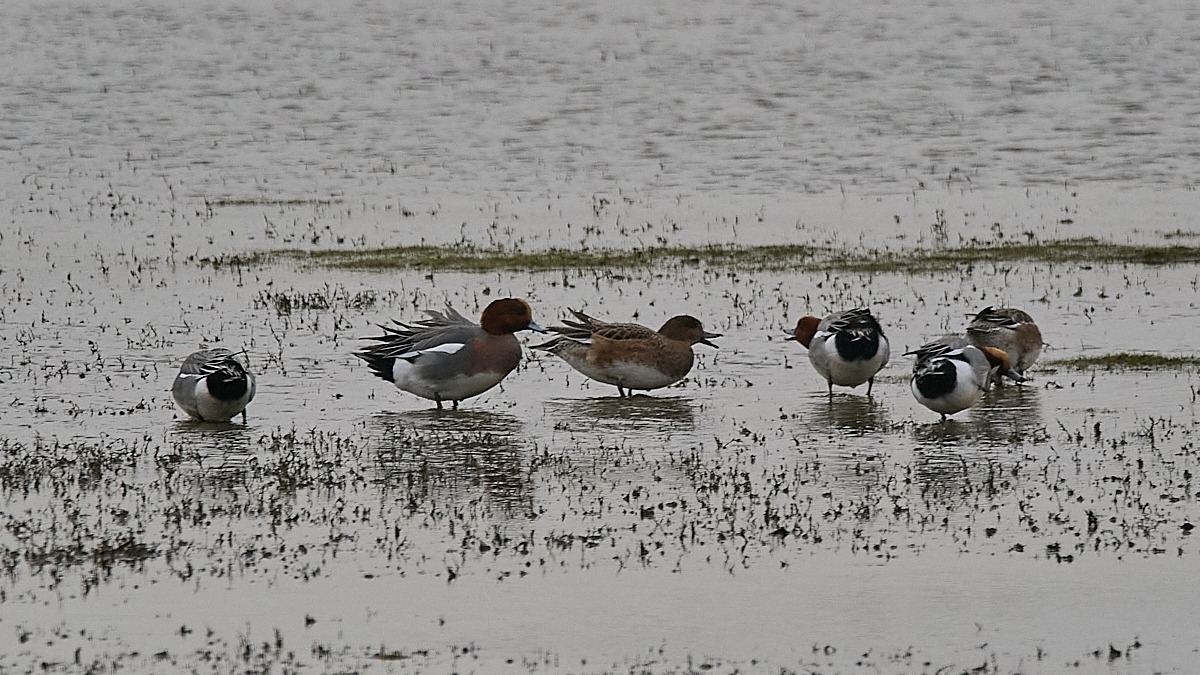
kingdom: Animalia
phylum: Chordata
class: Aves
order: Anseriformes
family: Anatidae
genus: Mareca
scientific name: Mareca penelope
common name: Pibeand
